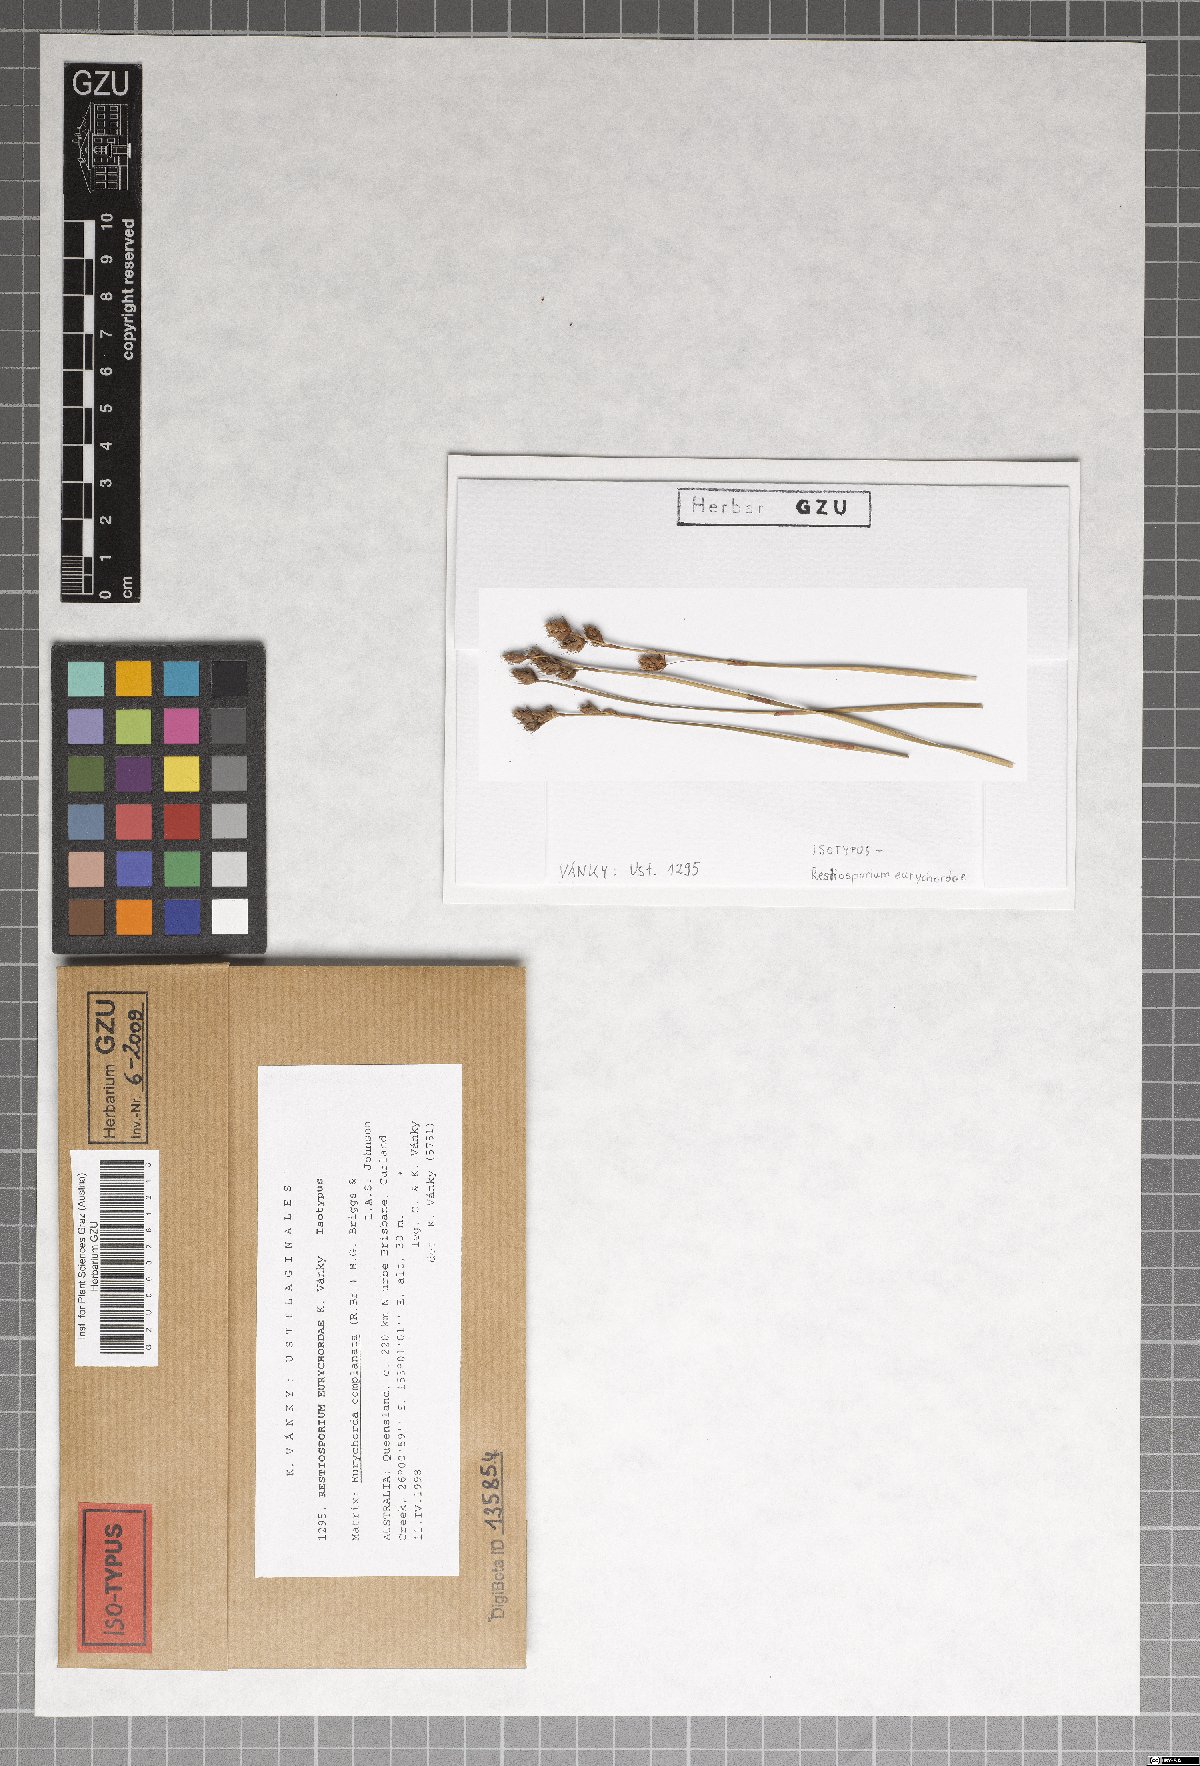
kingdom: Fungi
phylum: Basidiomycota
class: Ustilaginomycetes
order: Ustilaginales
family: Websdaneaceae
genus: Restiosporium
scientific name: Restiosporium eurychordae
